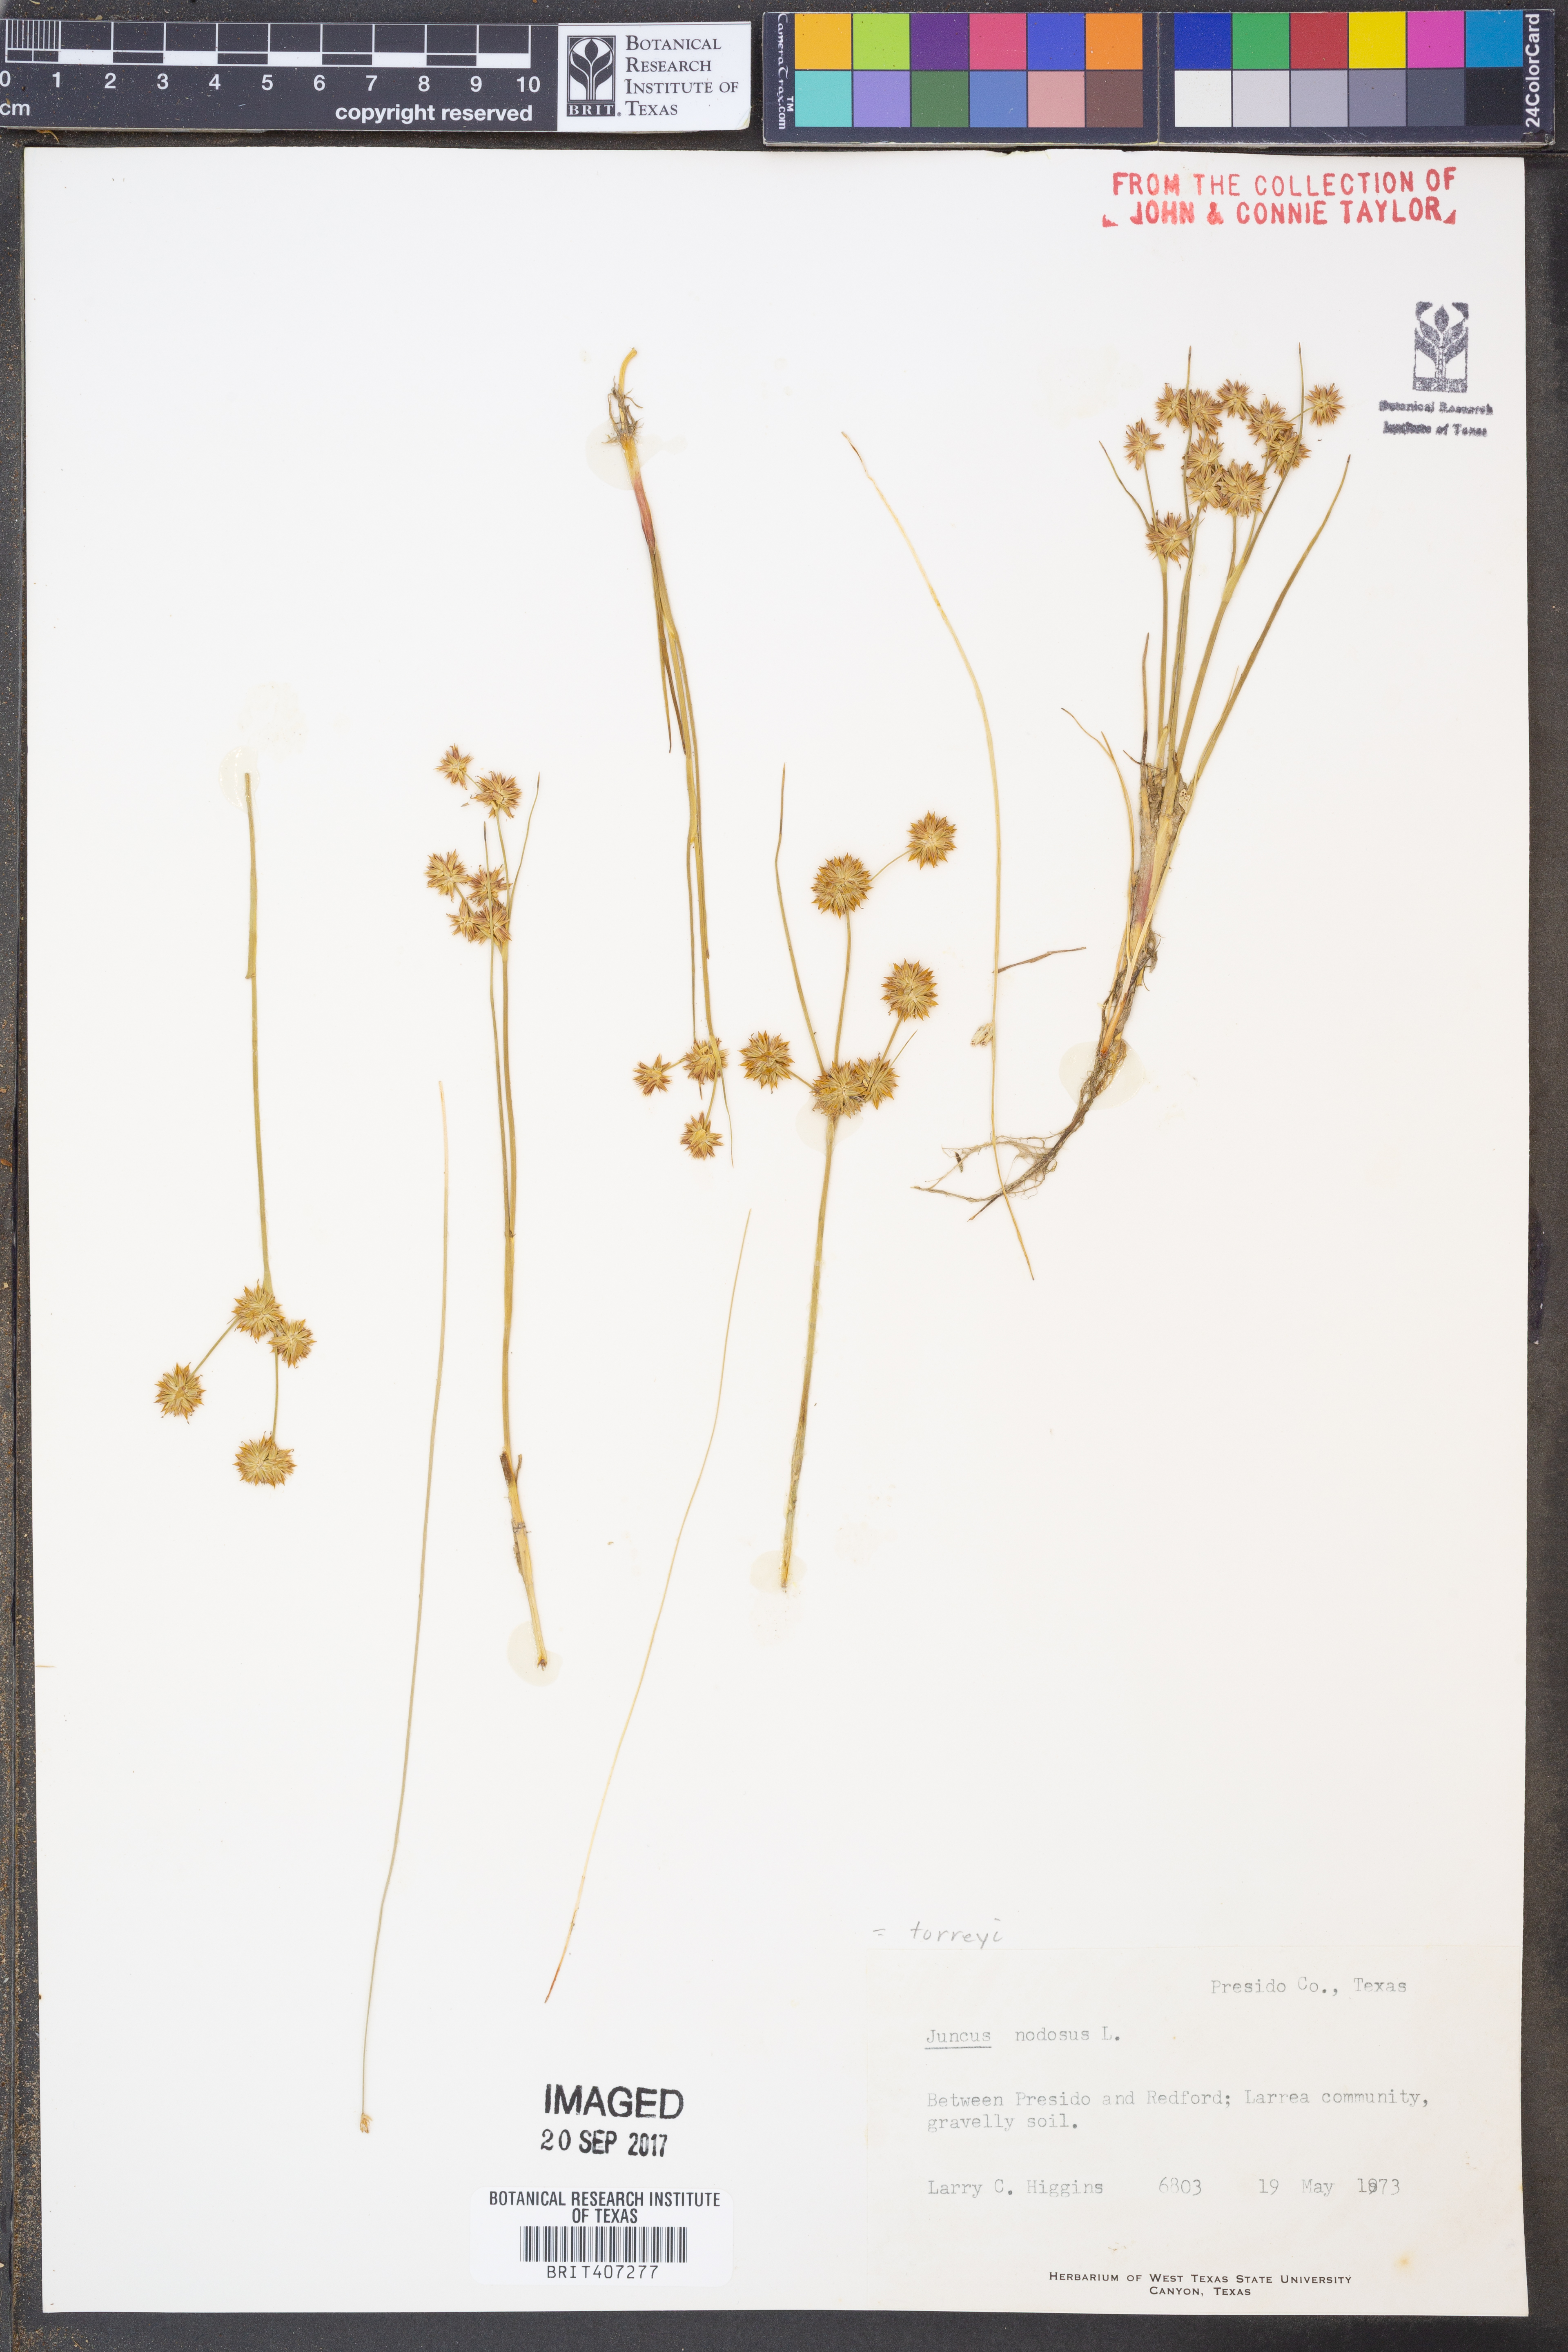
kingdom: Plantae
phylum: Tracheophyta
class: Liliopsida
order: Poales
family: Juncaceae
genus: Juncus
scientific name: Juncus nodosus
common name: Knotted rush
